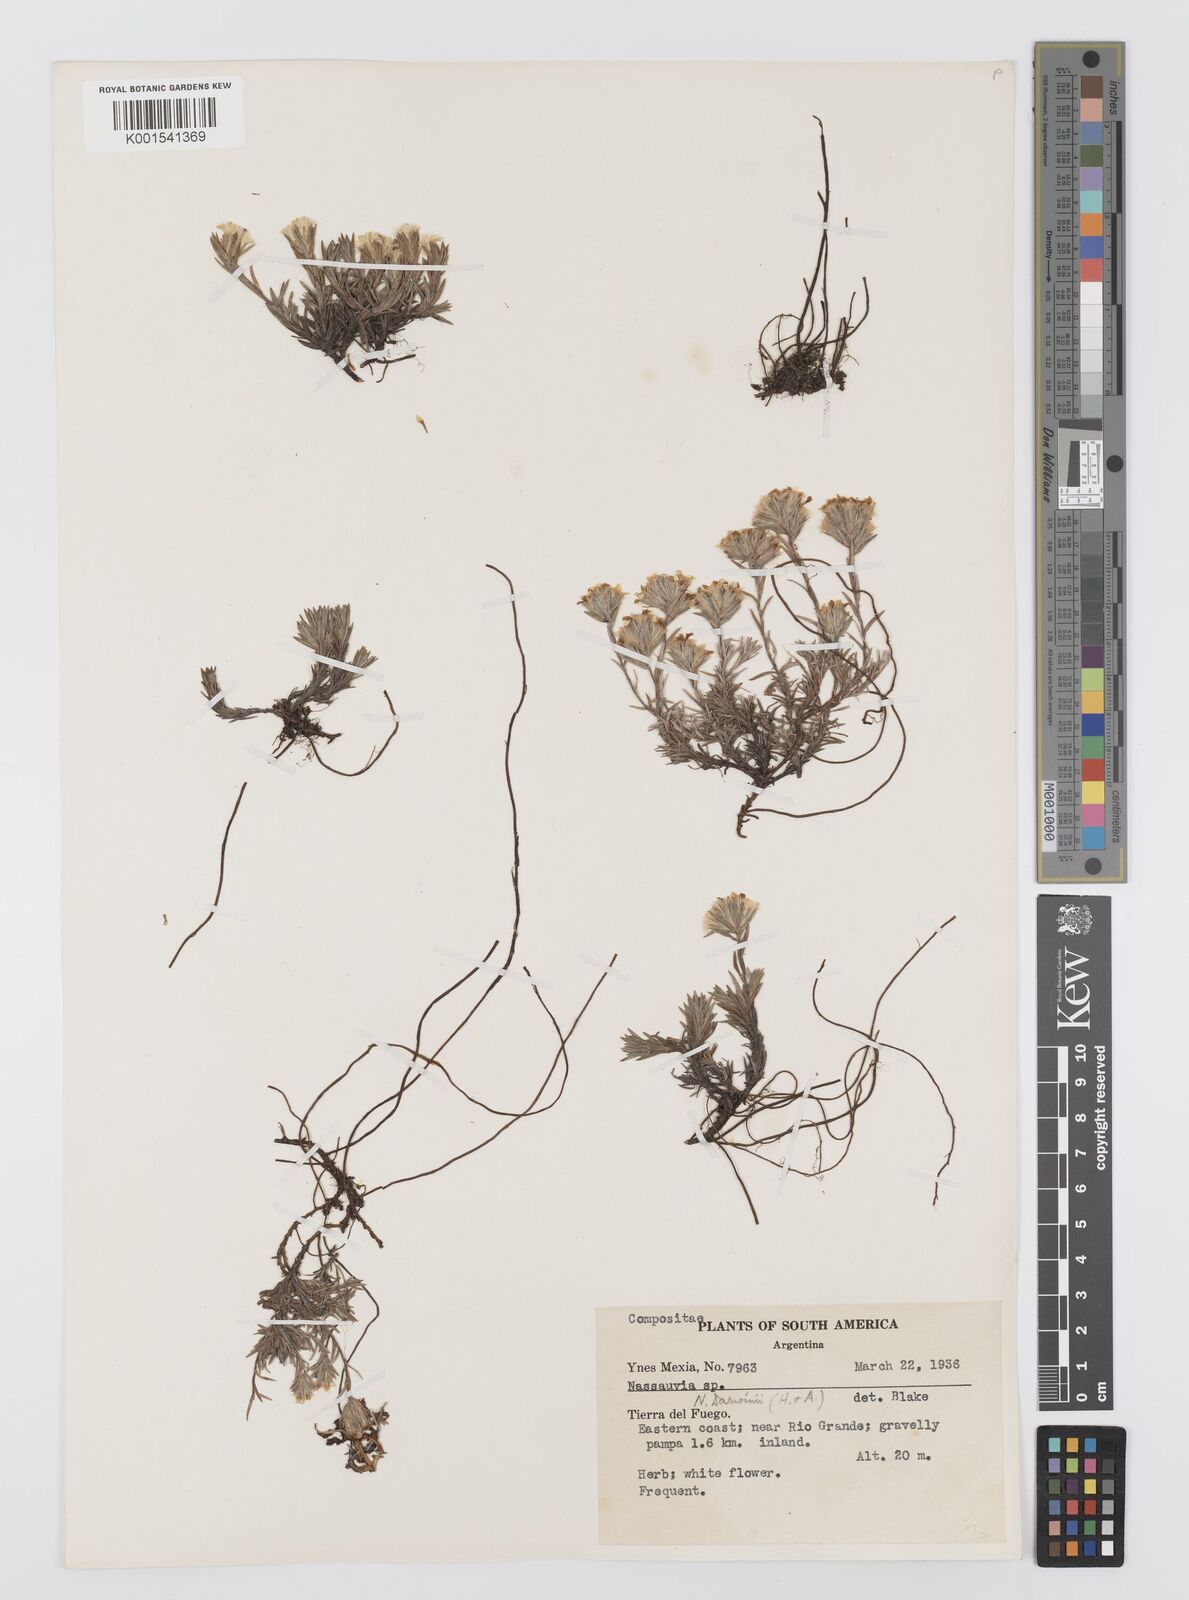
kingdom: Plantae
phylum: Tracheophyta
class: Magnoliopsida
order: Asterales
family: Asteraceae
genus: Nassauvia
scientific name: Nassauvia darwinii
